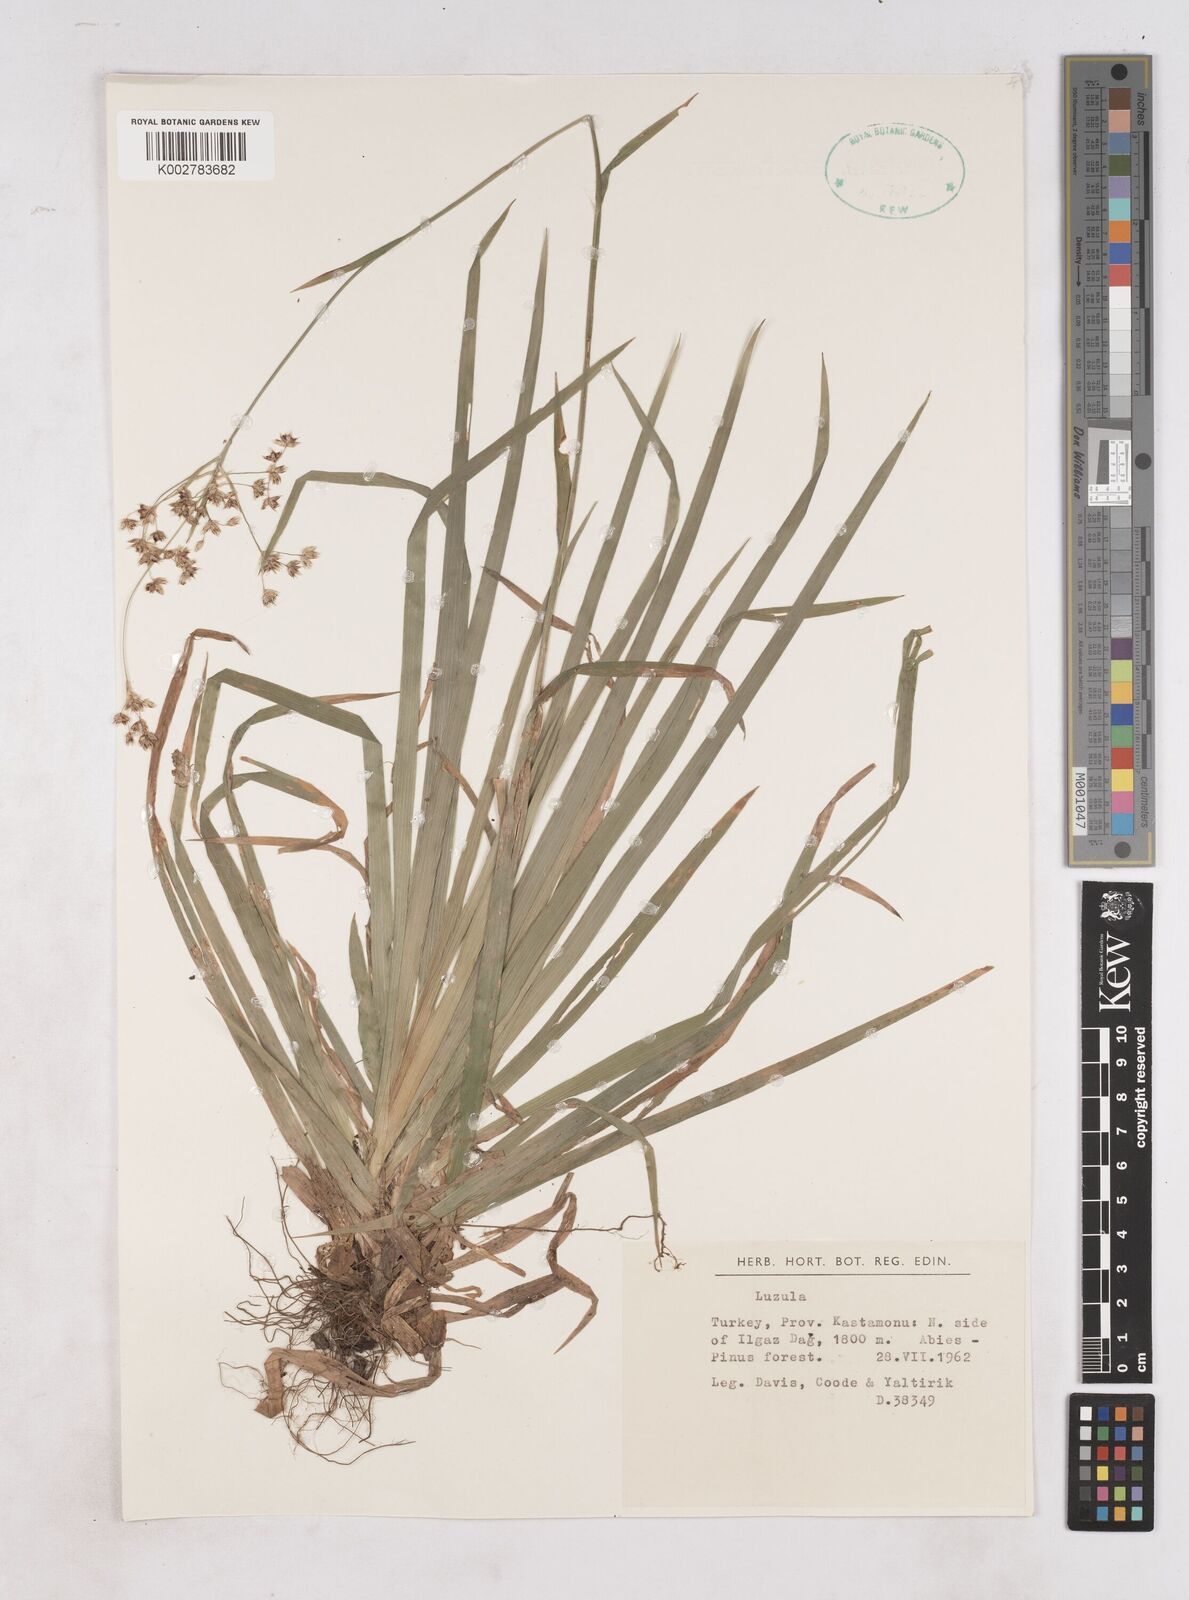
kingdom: Plantae
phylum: Tracheophyta
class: Liliopsida
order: Poales
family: Juncaceae
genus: Luzula
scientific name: Luzula
